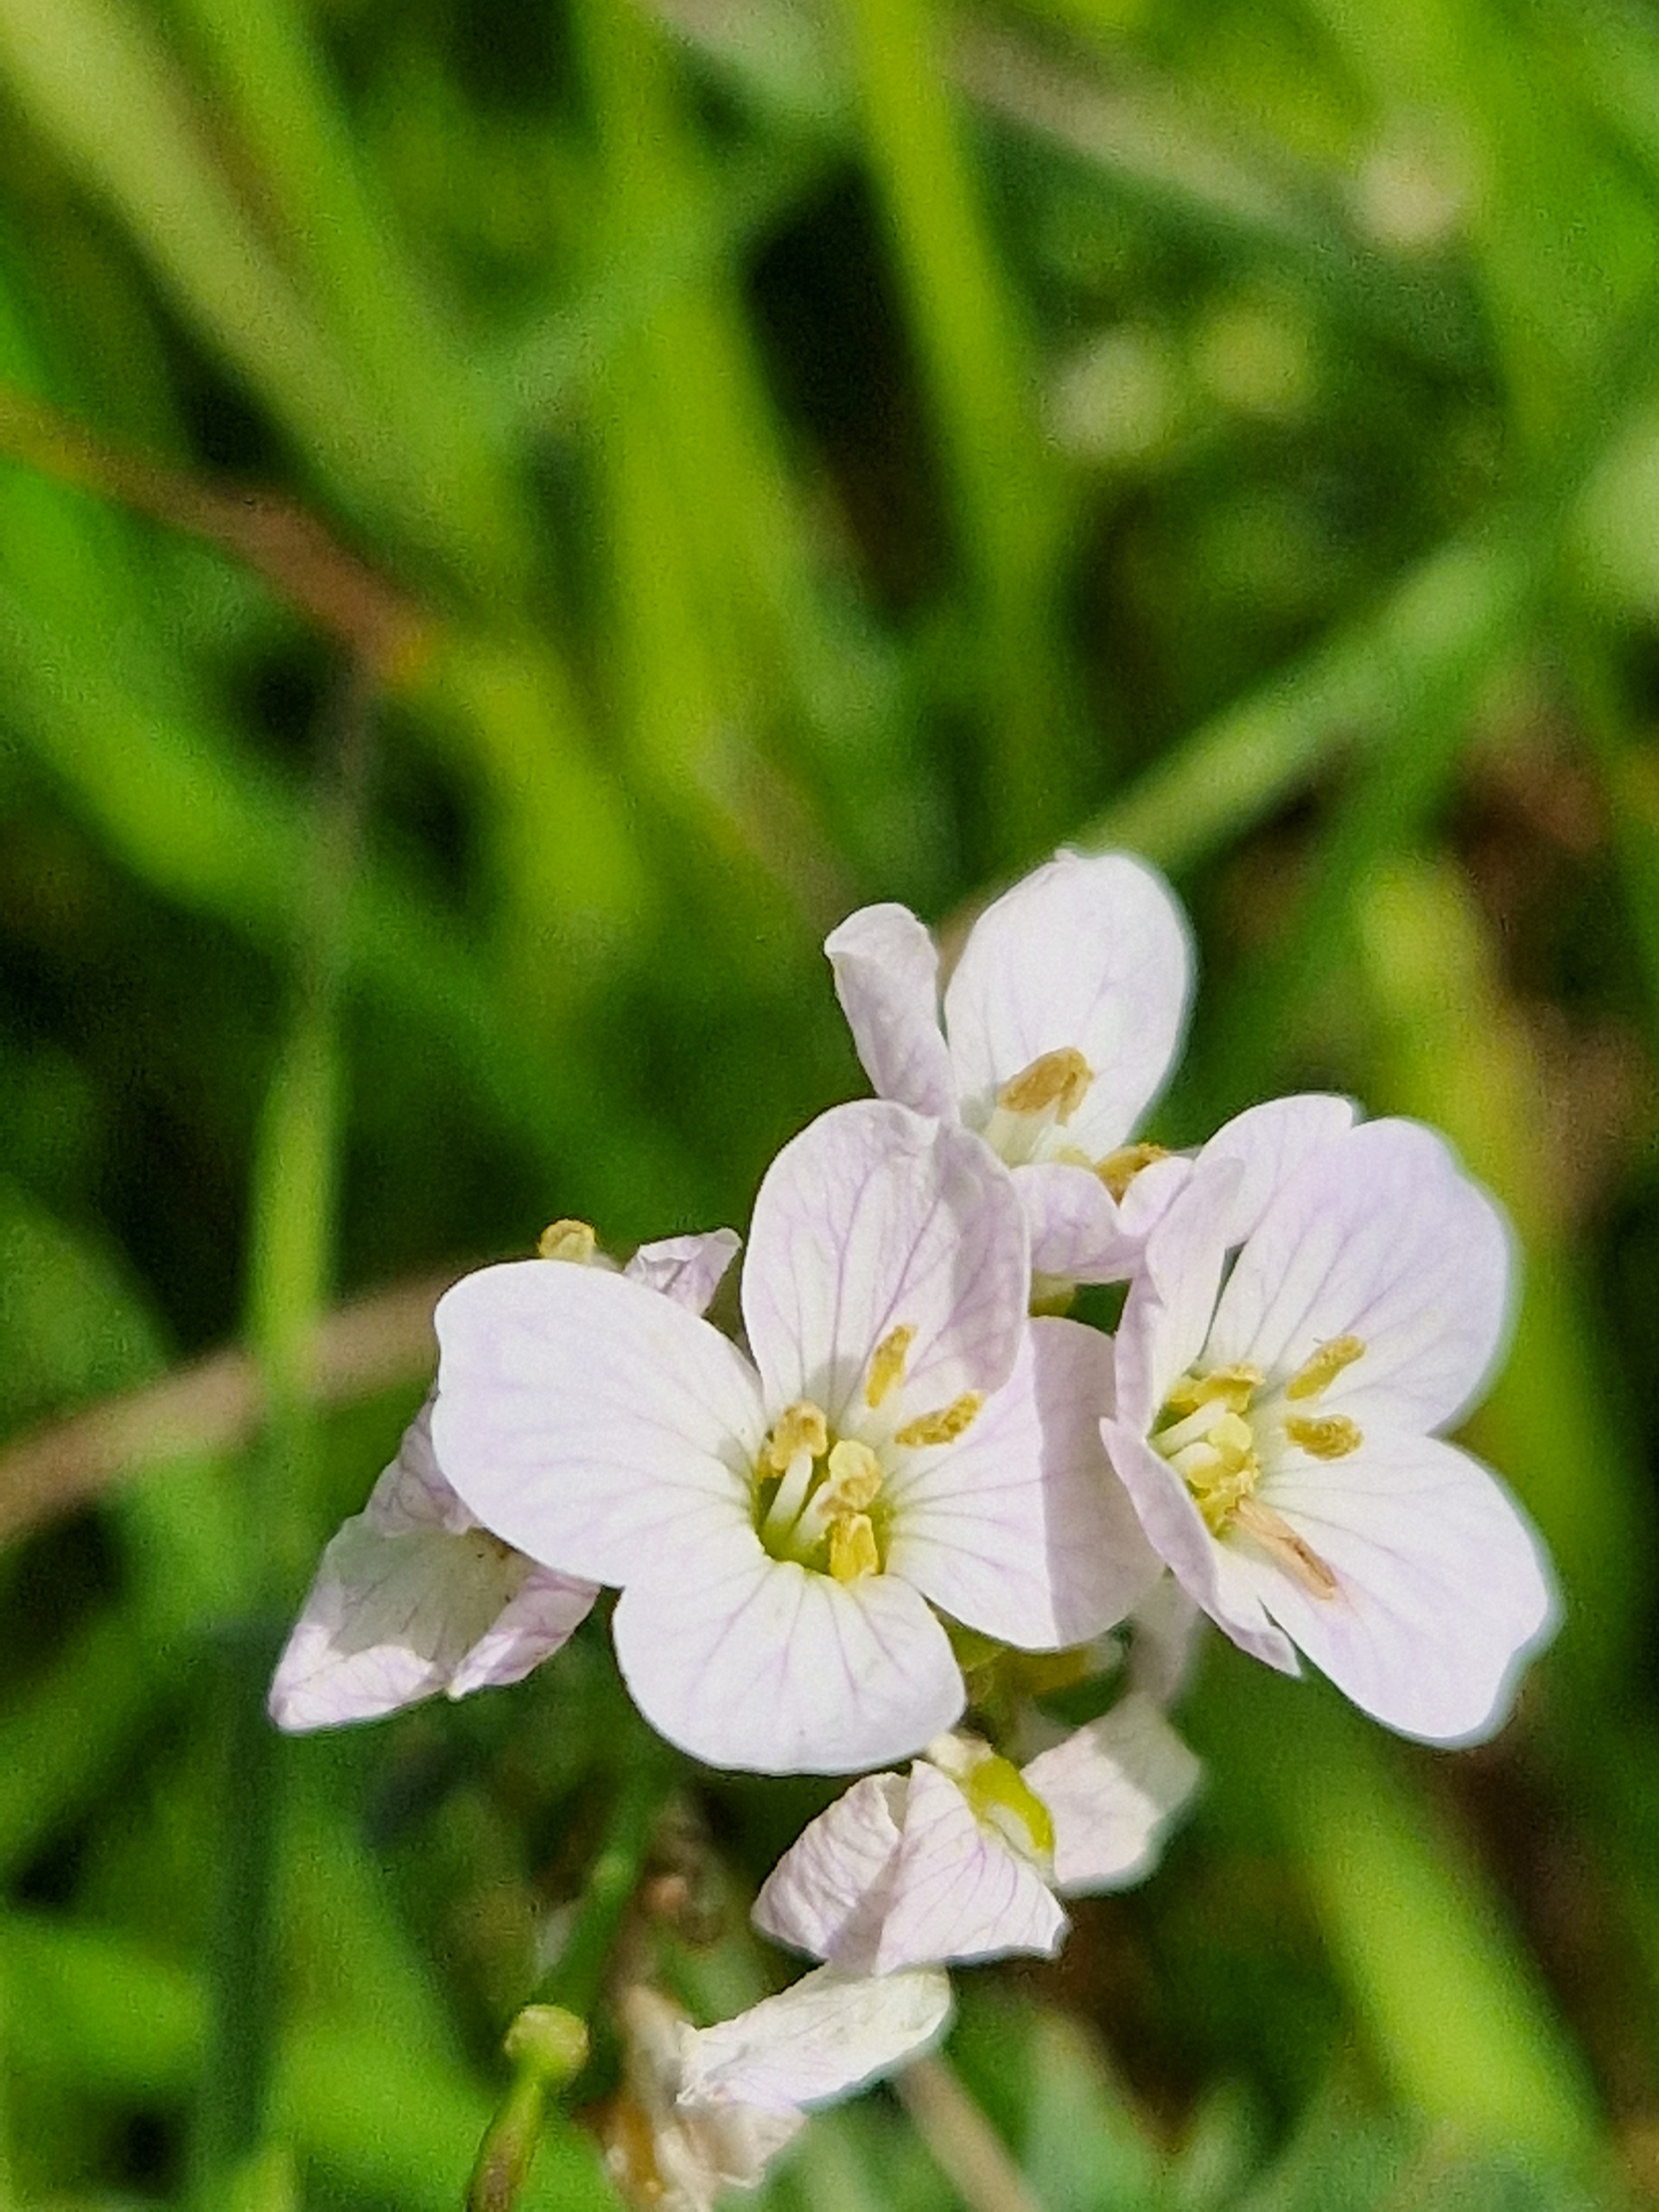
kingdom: Plantae
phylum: Tracheophyta
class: Magnoliopsida
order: Brassicales
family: Brassicaceae
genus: Cardamine
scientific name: Cardamine pratensis
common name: Engkarse
